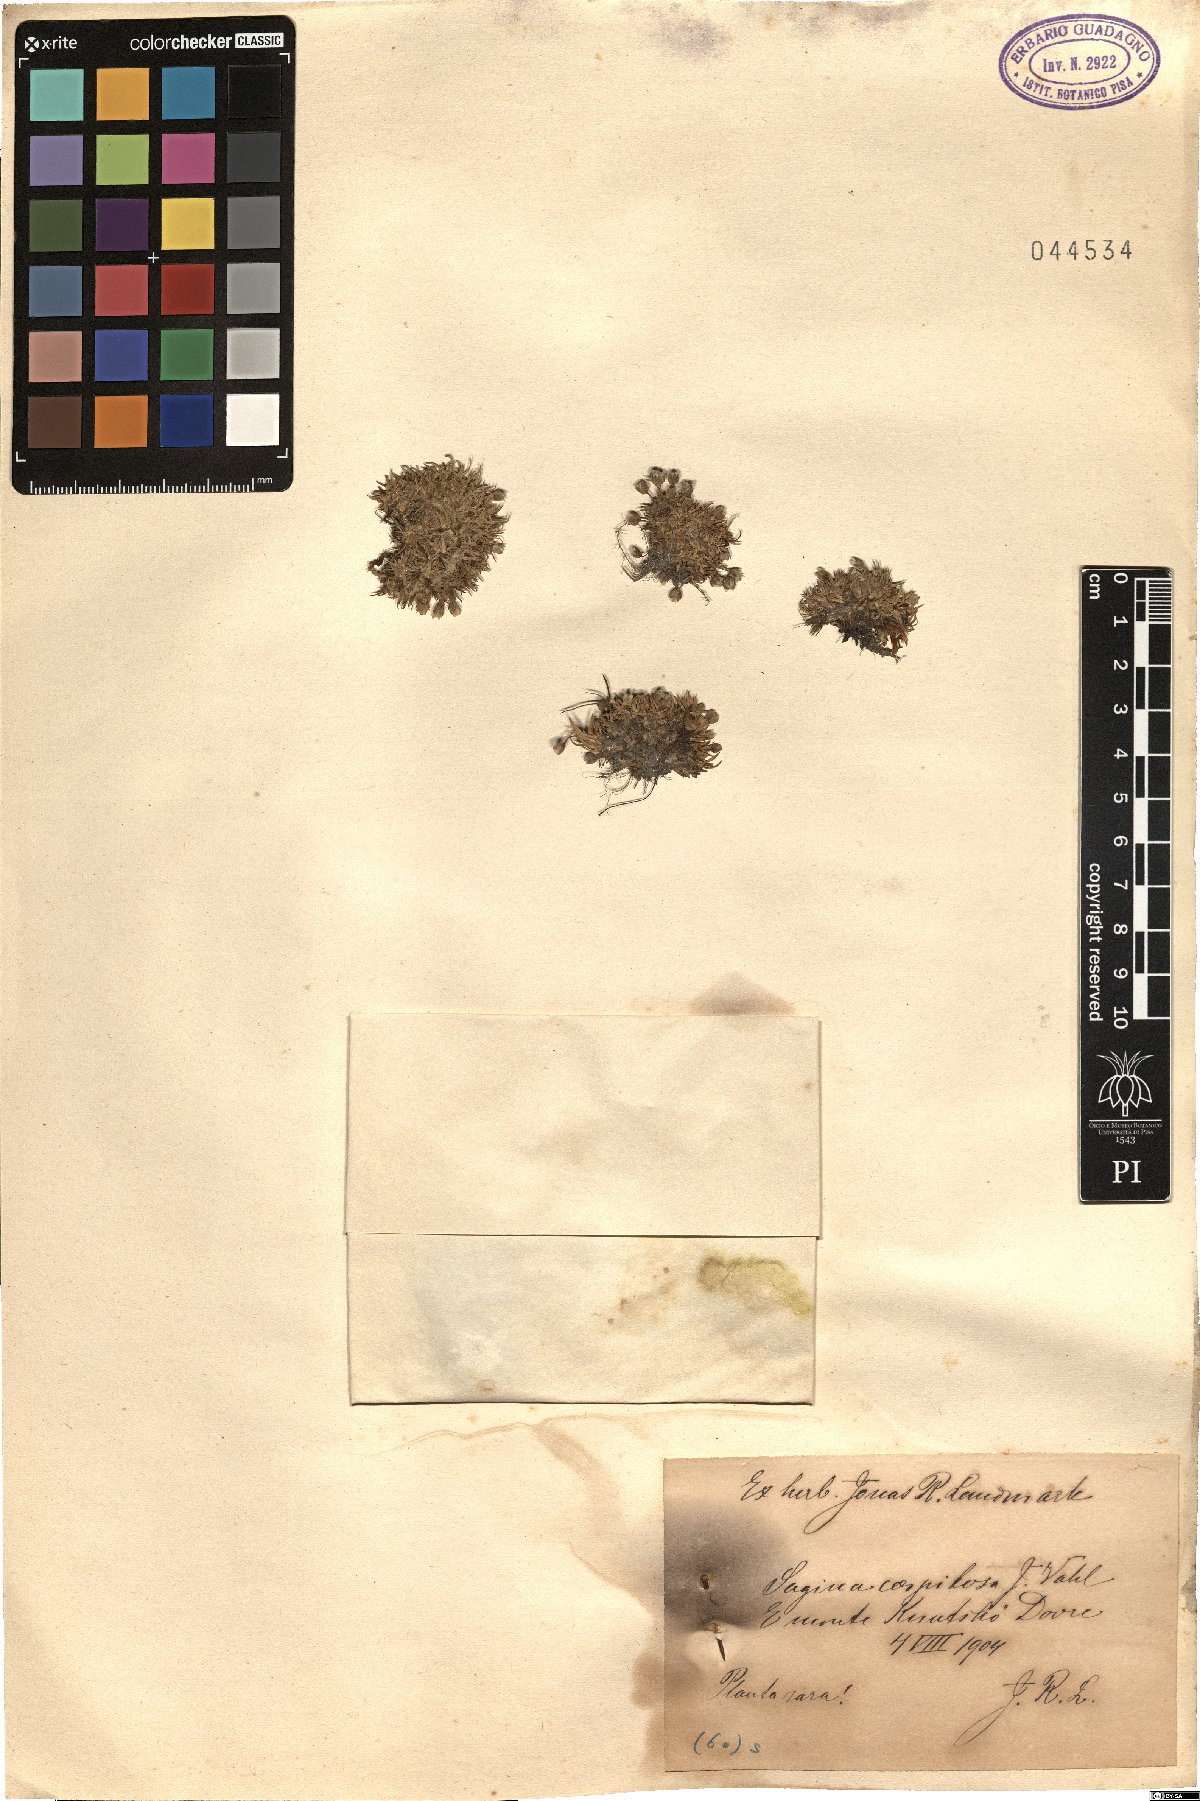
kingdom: Plantae
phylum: Tracheophyta
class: Magnoliopsida
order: Caryophyllales
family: Caryophyllaceae
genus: Sagina
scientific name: Sagina caespitosa
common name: Tufted pearlwort
